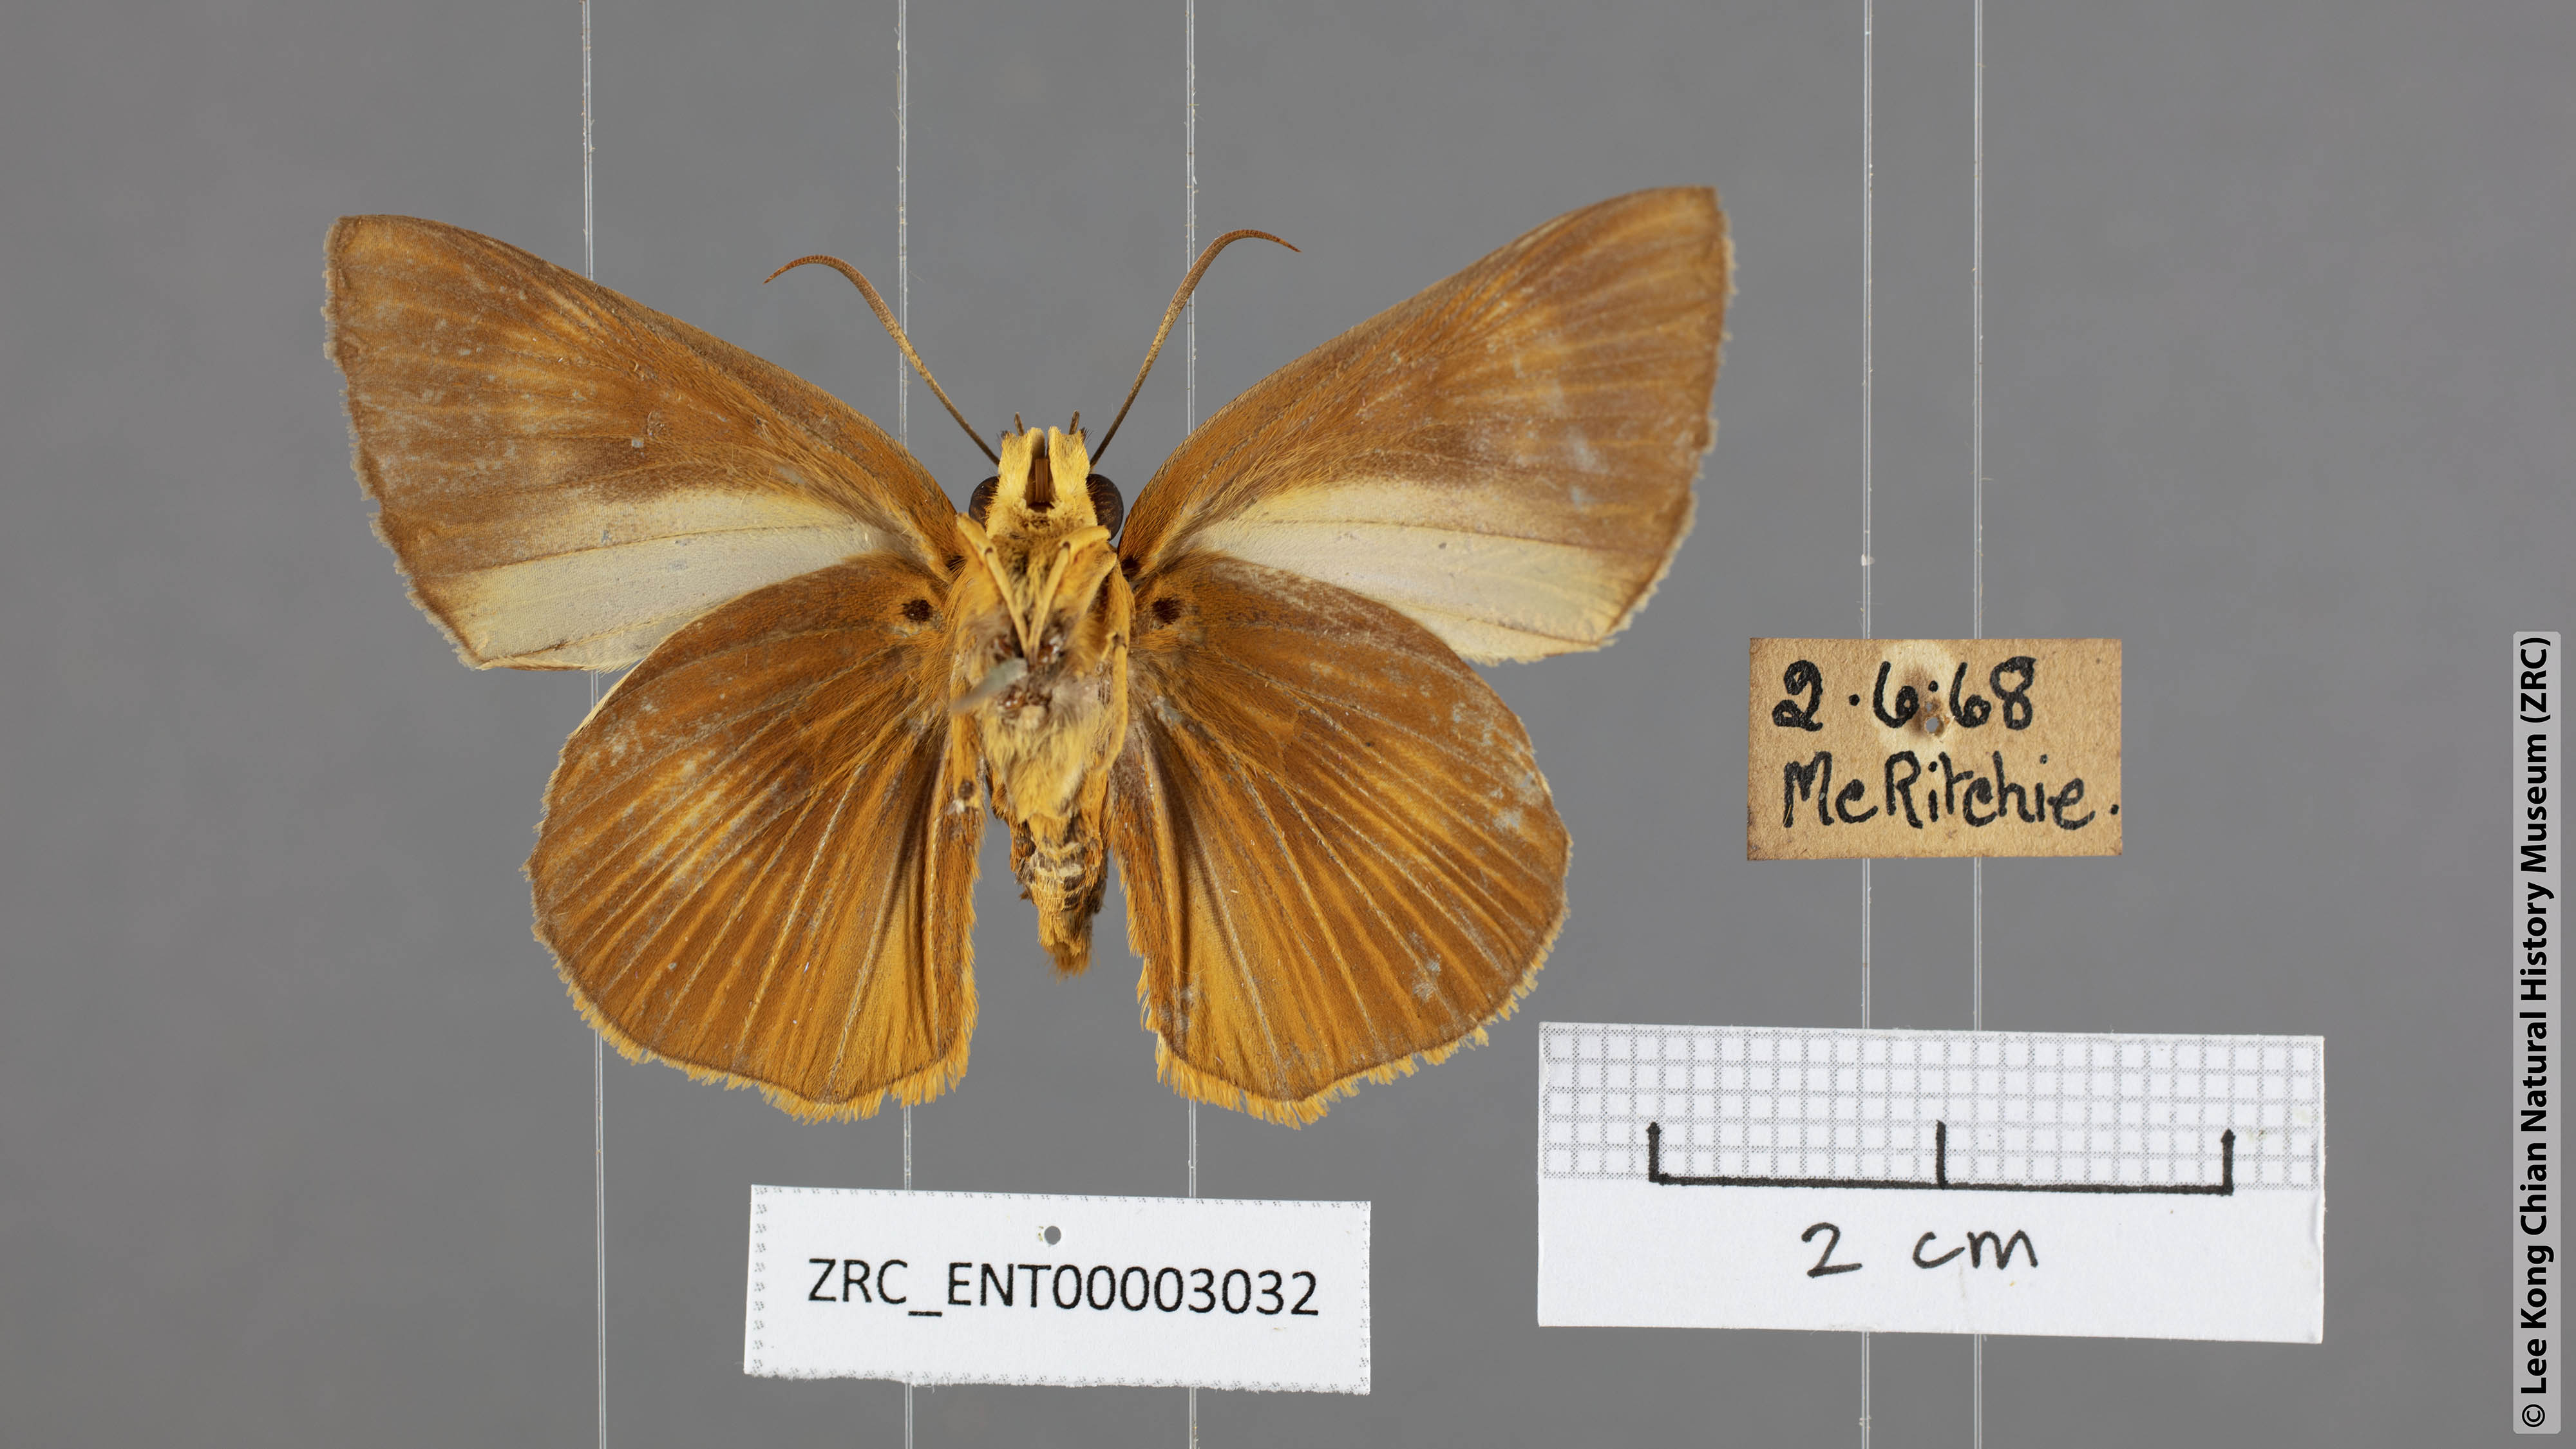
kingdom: Animalia
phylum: Arthropoda
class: Insecta
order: Lepidoptera
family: Hesperiidae
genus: Bibasis
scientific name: Bibasis Burara harisa
